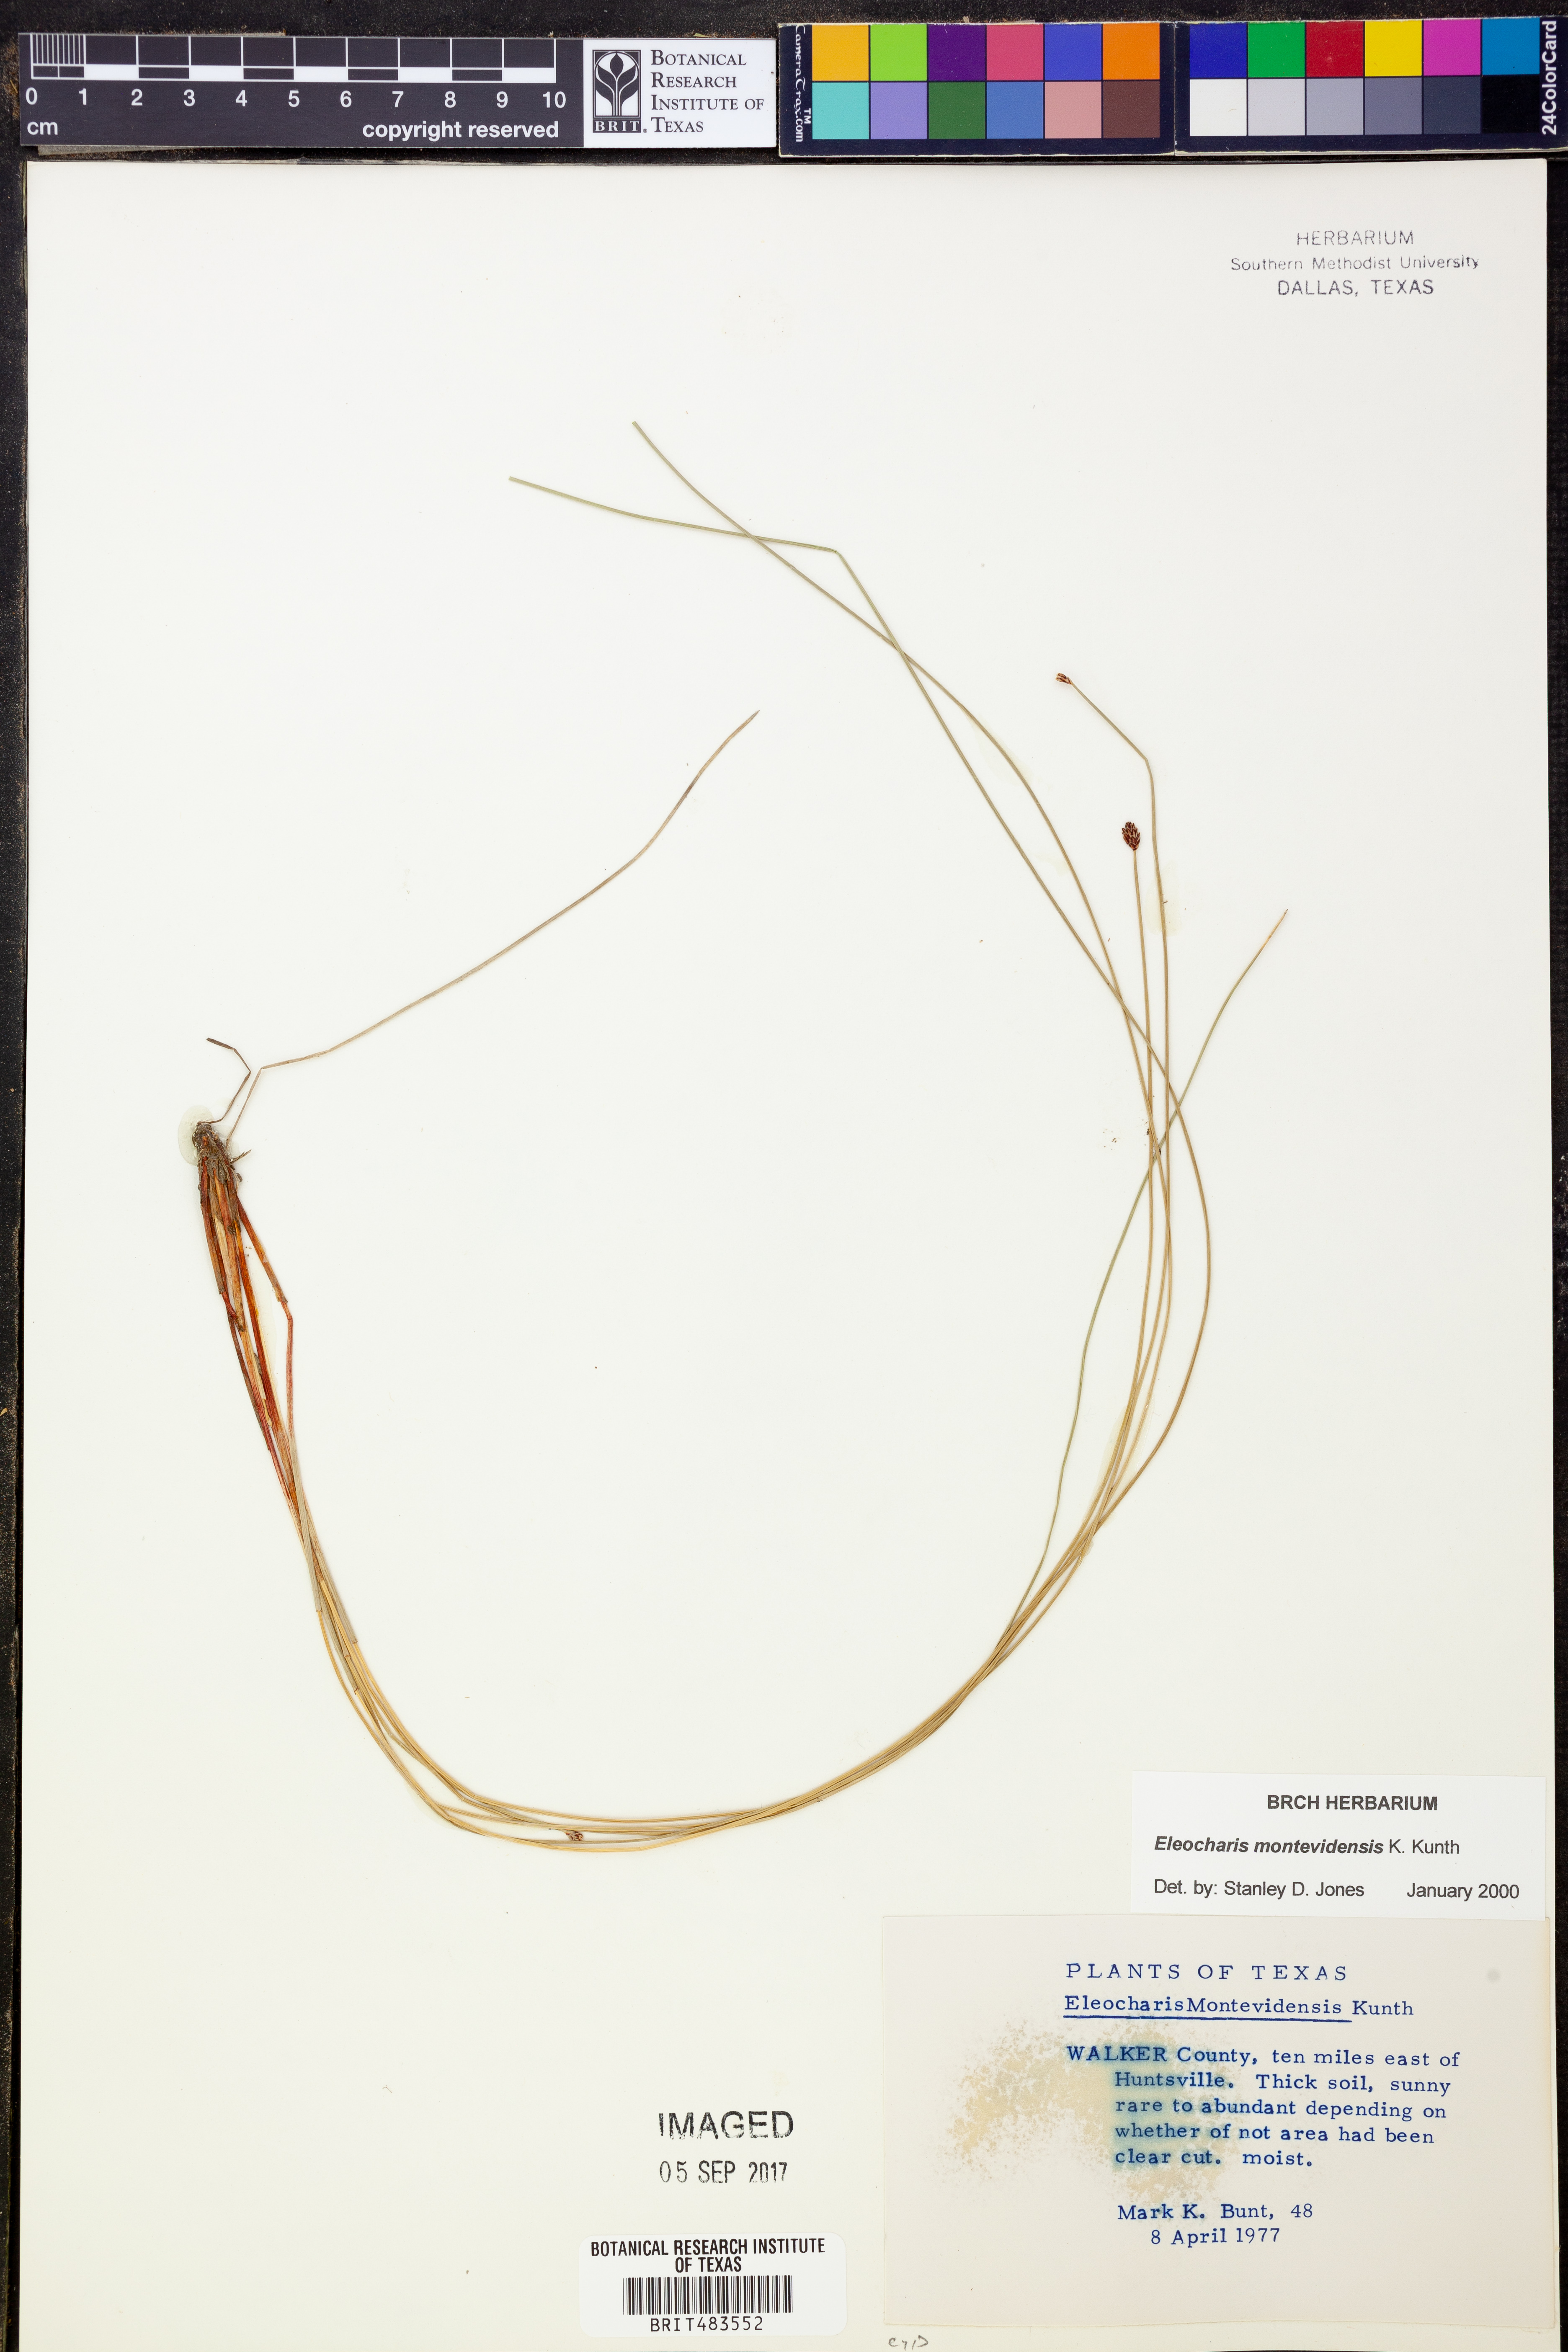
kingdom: Plantae
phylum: Tracheophyta
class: Liliopsida
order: Poales
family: Cyperaceae
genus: Eleocharis
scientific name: Eleocharis montevidensis
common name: Sand spike-rush
